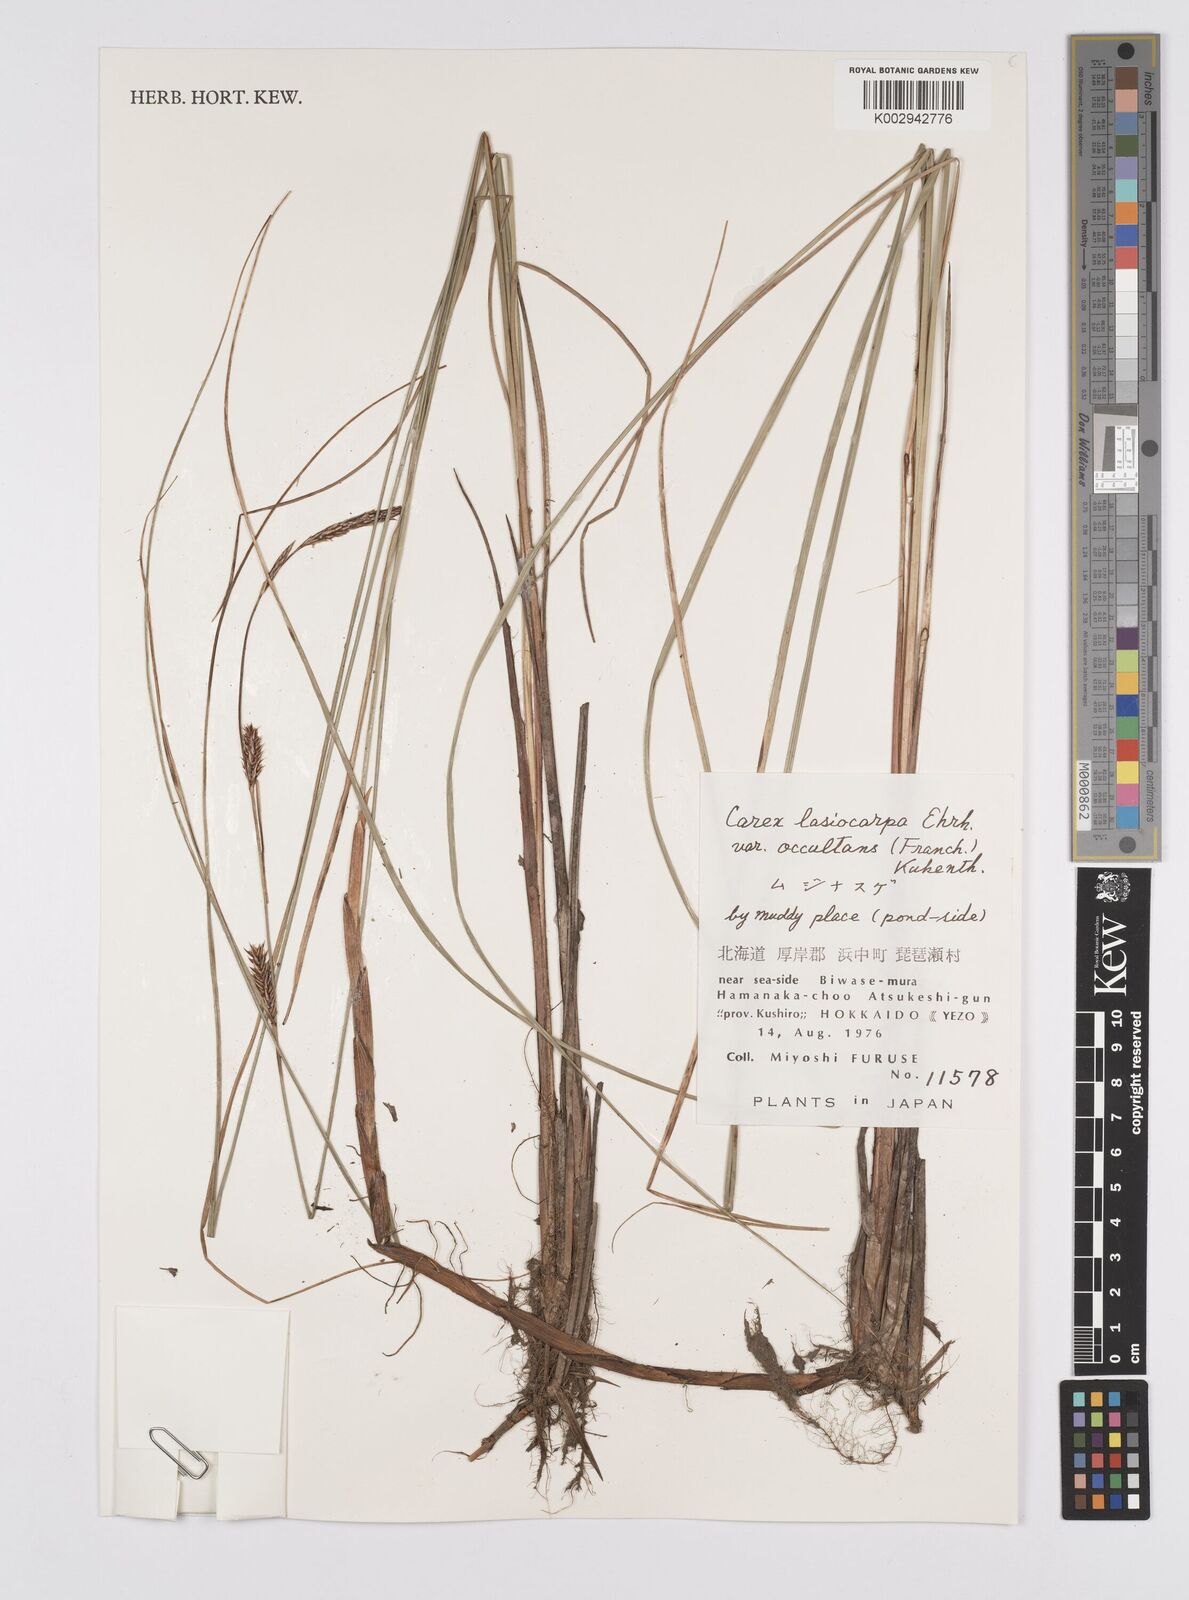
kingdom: Plantae
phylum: Tracheophyta
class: Liliopsida
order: Poales
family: Cyperaceae
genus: Carex
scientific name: Carex lasiocarpa
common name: Slender sedge
